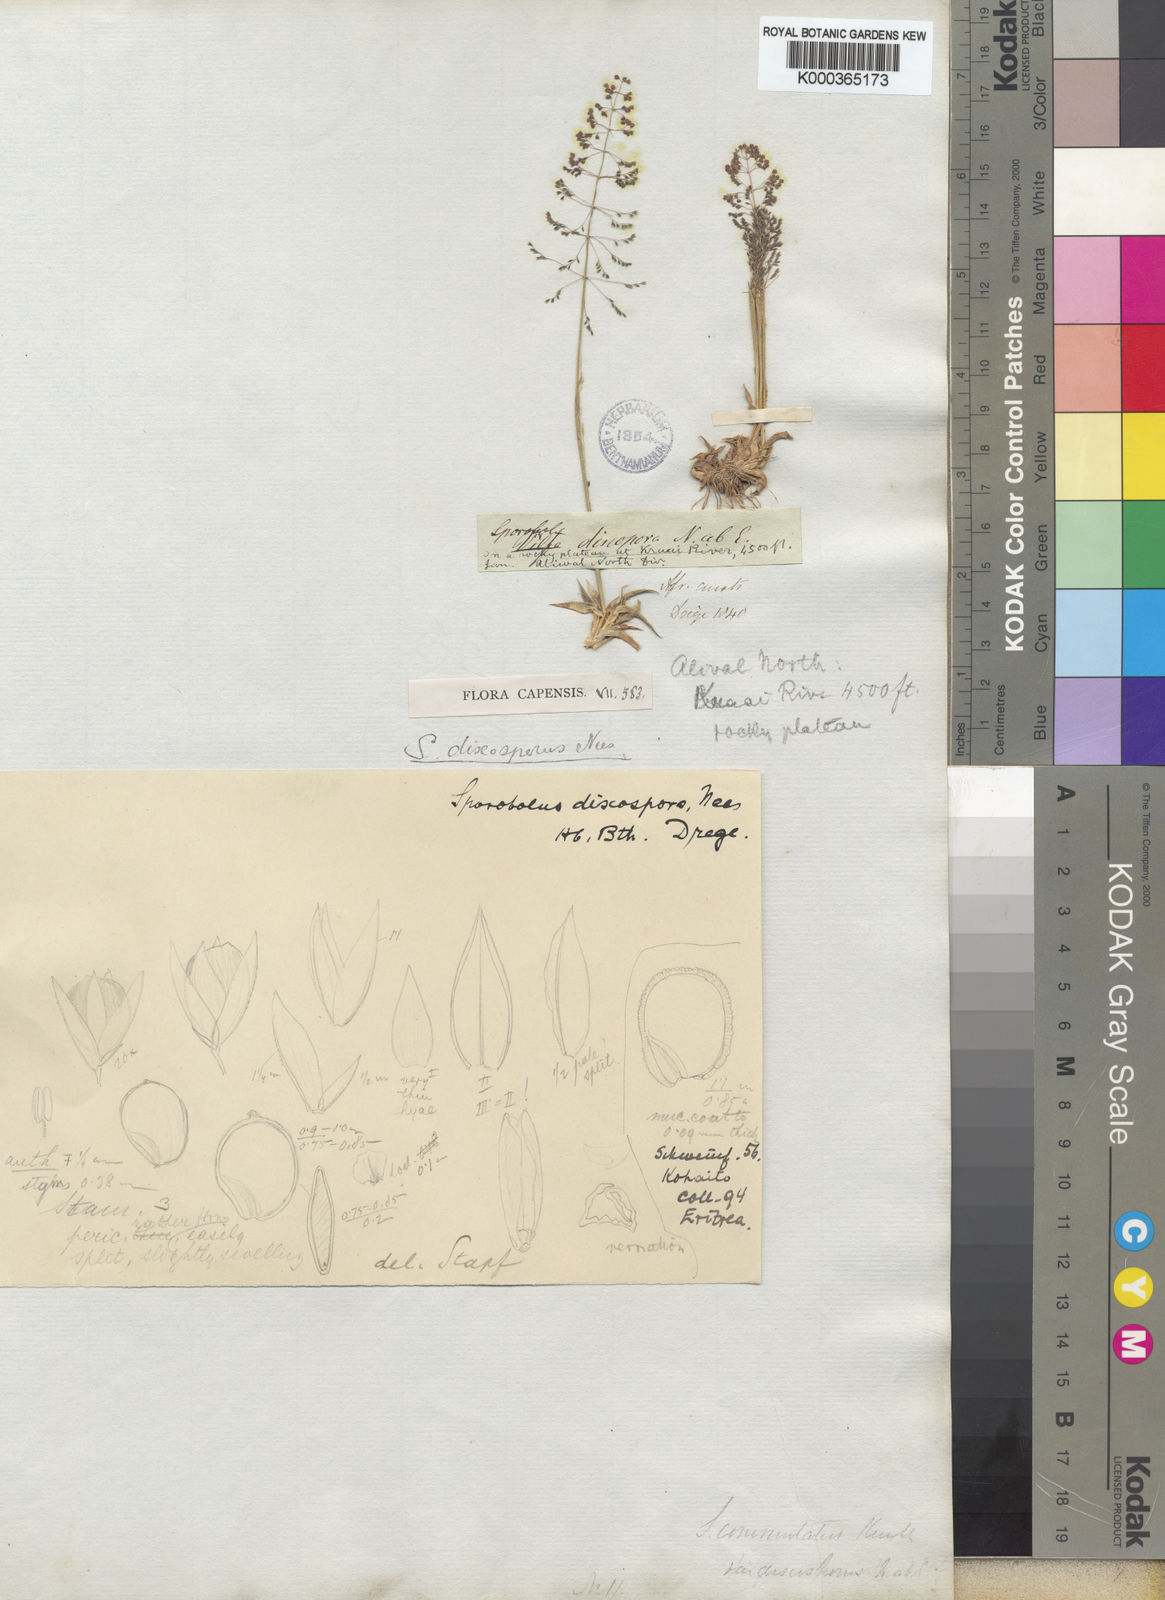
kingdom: Plantae
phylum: Tracheophyta
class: Liliopsida
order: Poales
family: Poaceae
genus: Sporobolus
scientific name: Sporobolus discosporus
